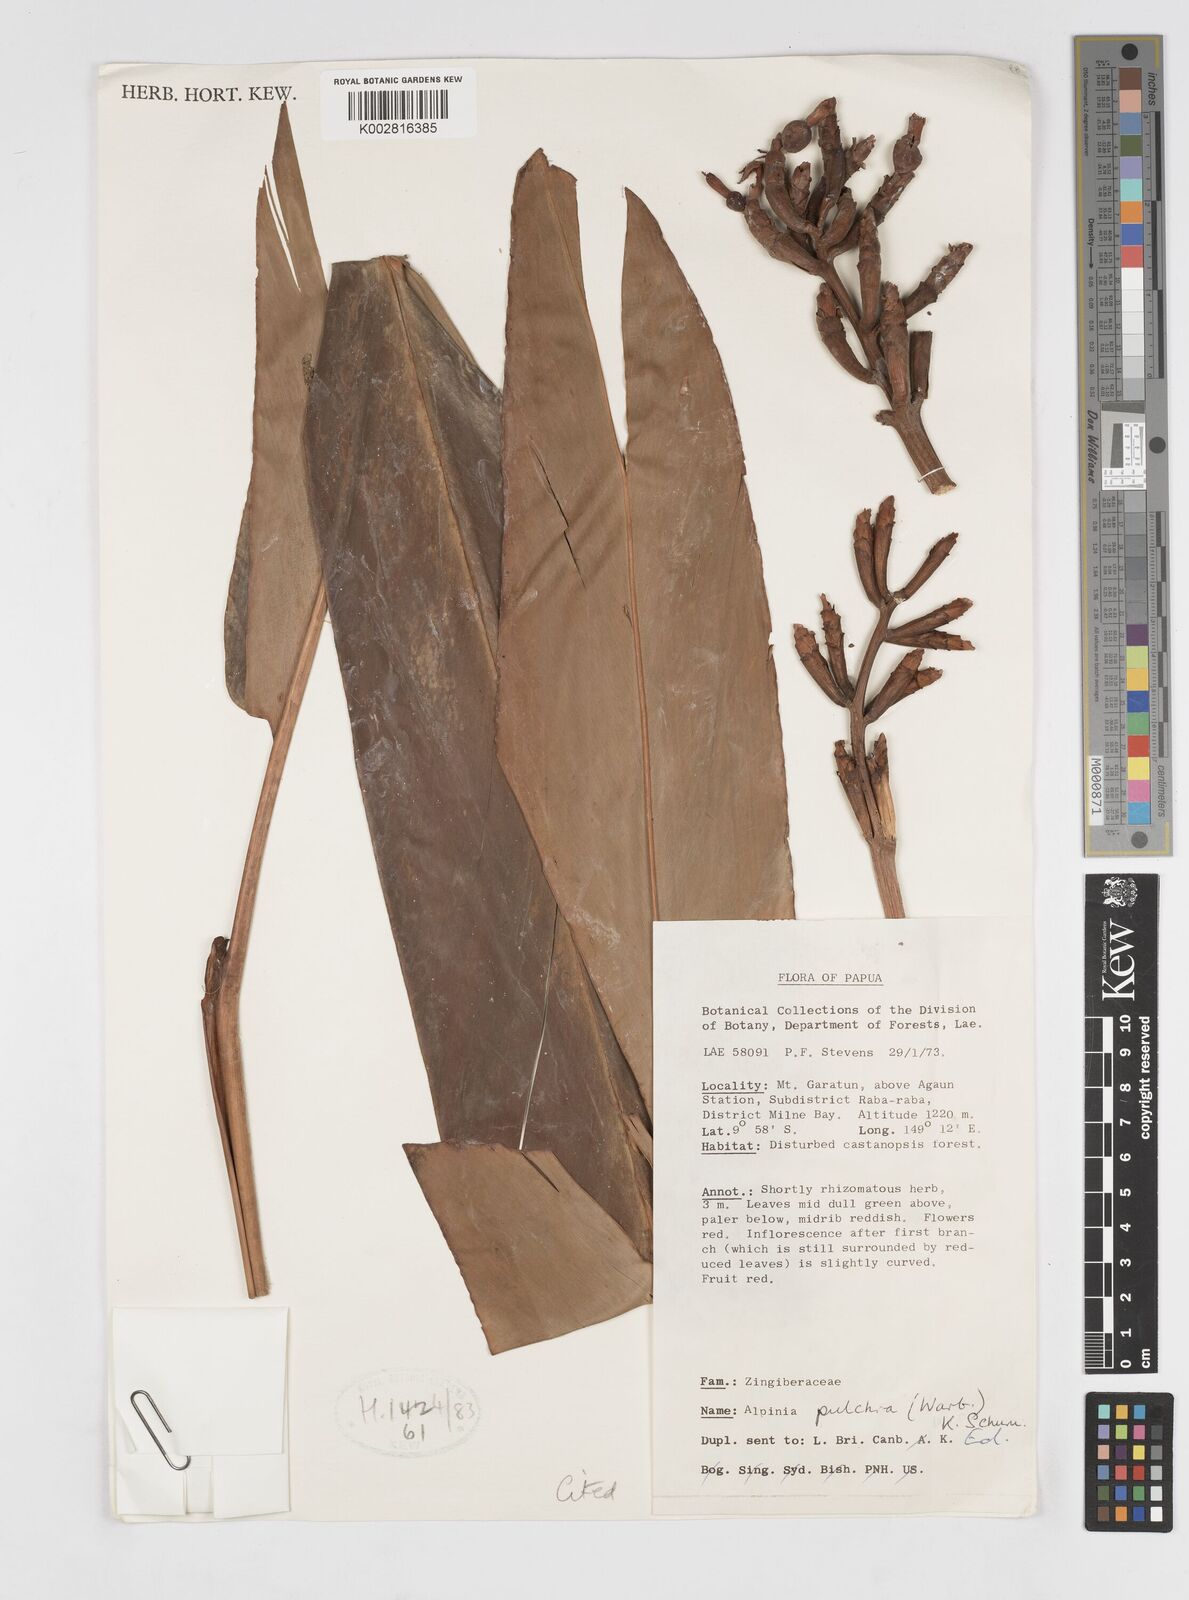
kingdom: Plantae
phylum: Tracheophyta
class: Liliopsida
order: Zingiberales
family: Zingiberaceae
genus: Alpinia
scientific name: Alpinia pulchra
